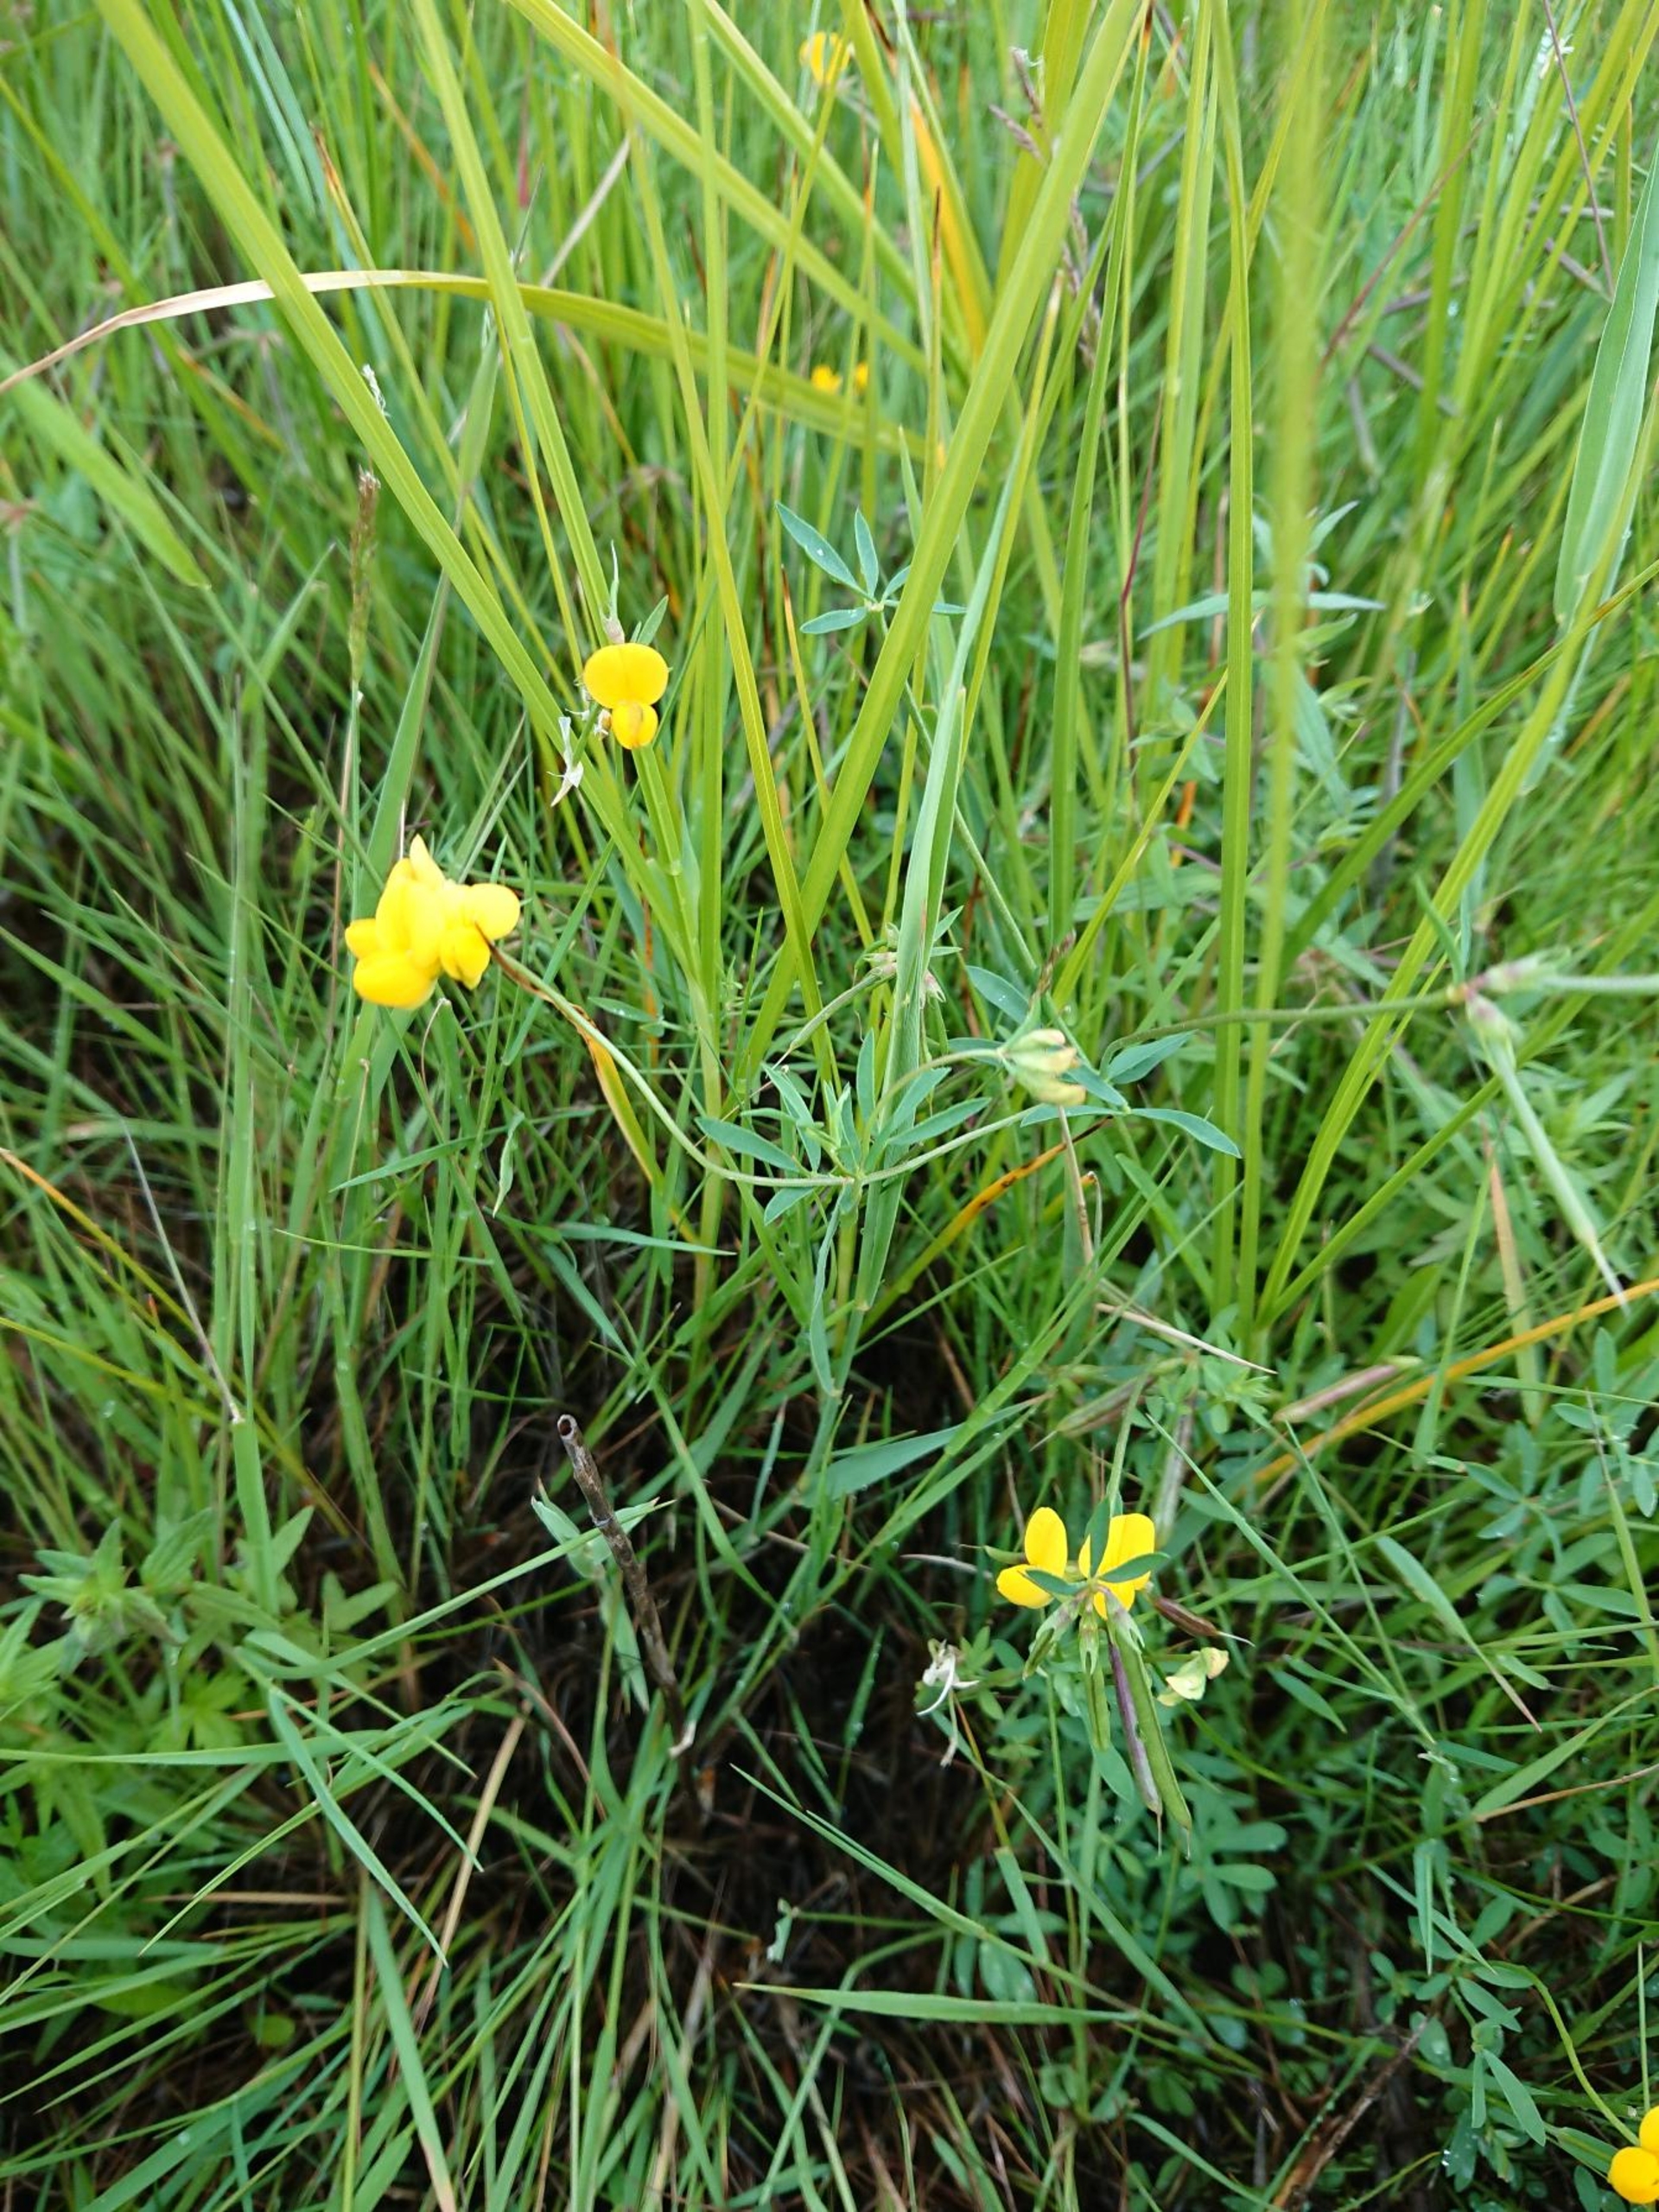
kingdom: Plantae
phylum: Tracheophyta
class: Magnoliopsida
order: Fabales
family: Fabaceae
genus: Lotus
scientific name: Lotus tenuis
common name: Smalbladet kællingetand
